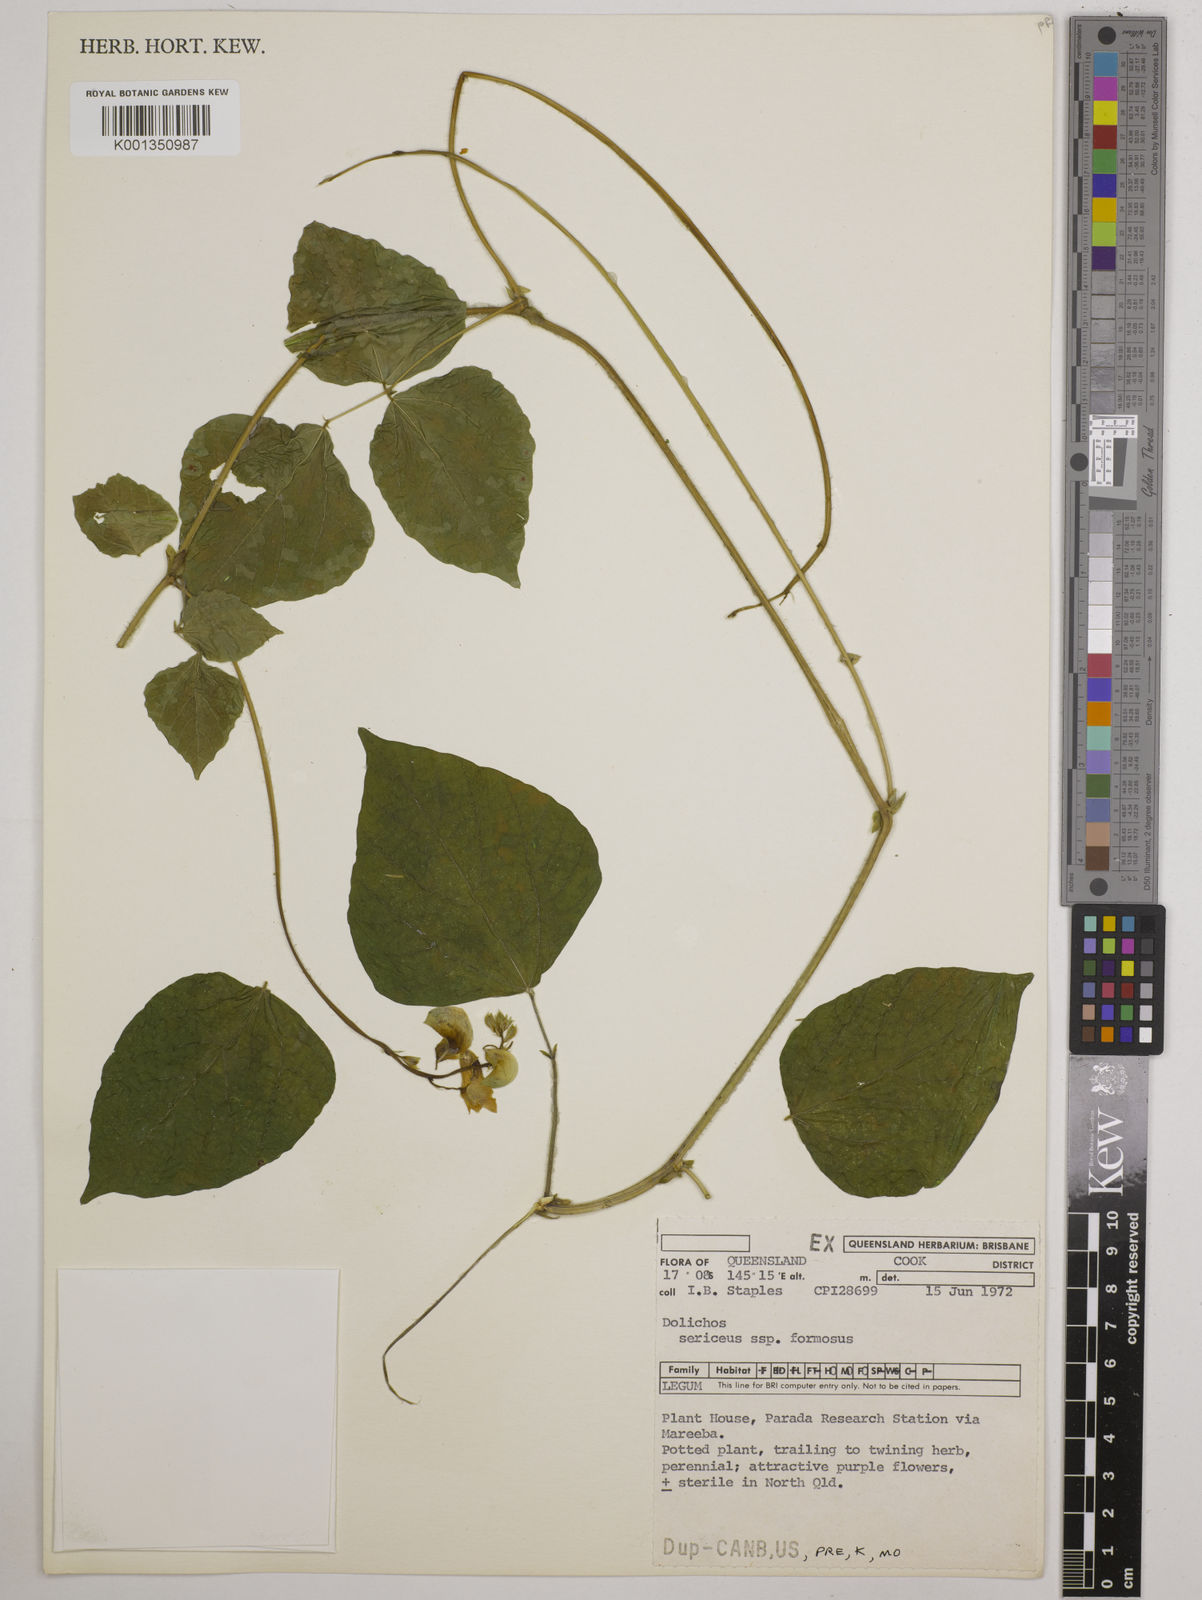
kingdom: Plantae
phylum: Tracheophyta
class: Magnoliopsida
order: Fabales
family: Fabaceae
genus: Dolichos
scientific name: Dolichos
